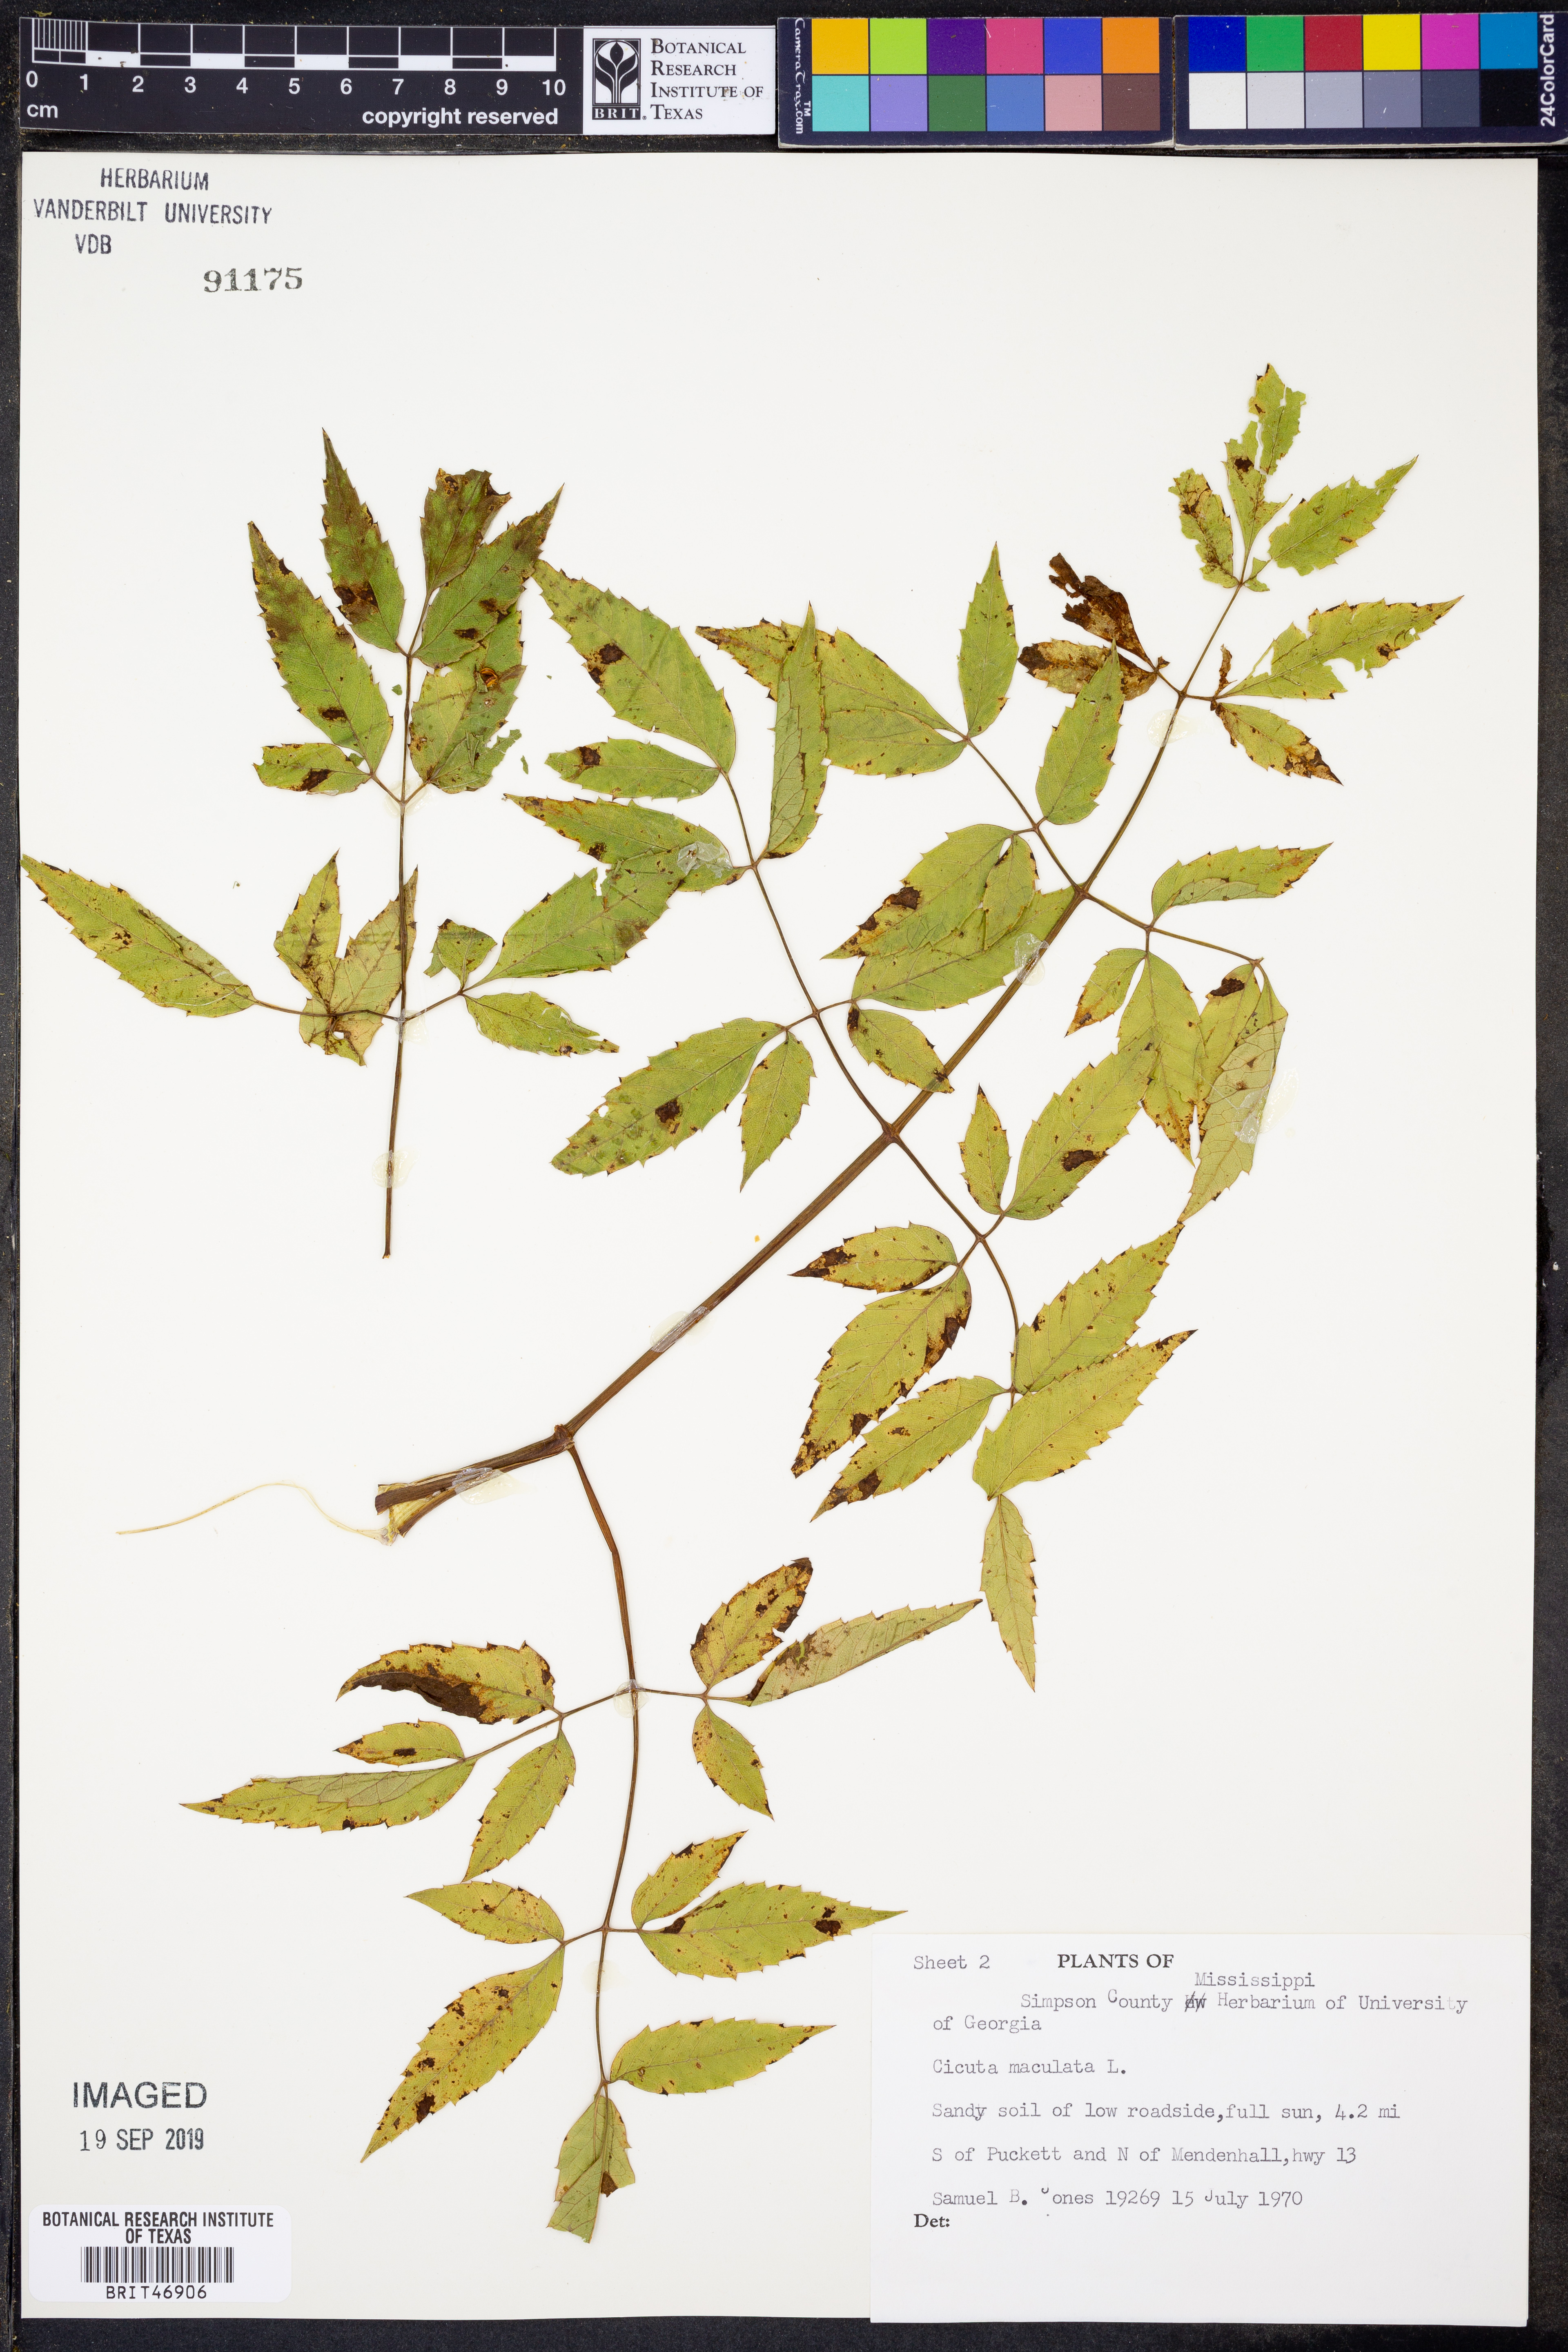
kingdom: Plantae
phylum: Tracheophyta
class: Magnoliopsida
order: Apiales
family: Apiaceae
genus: Cicuta
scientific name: Cicuta maculata
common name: Spotted cowbane
